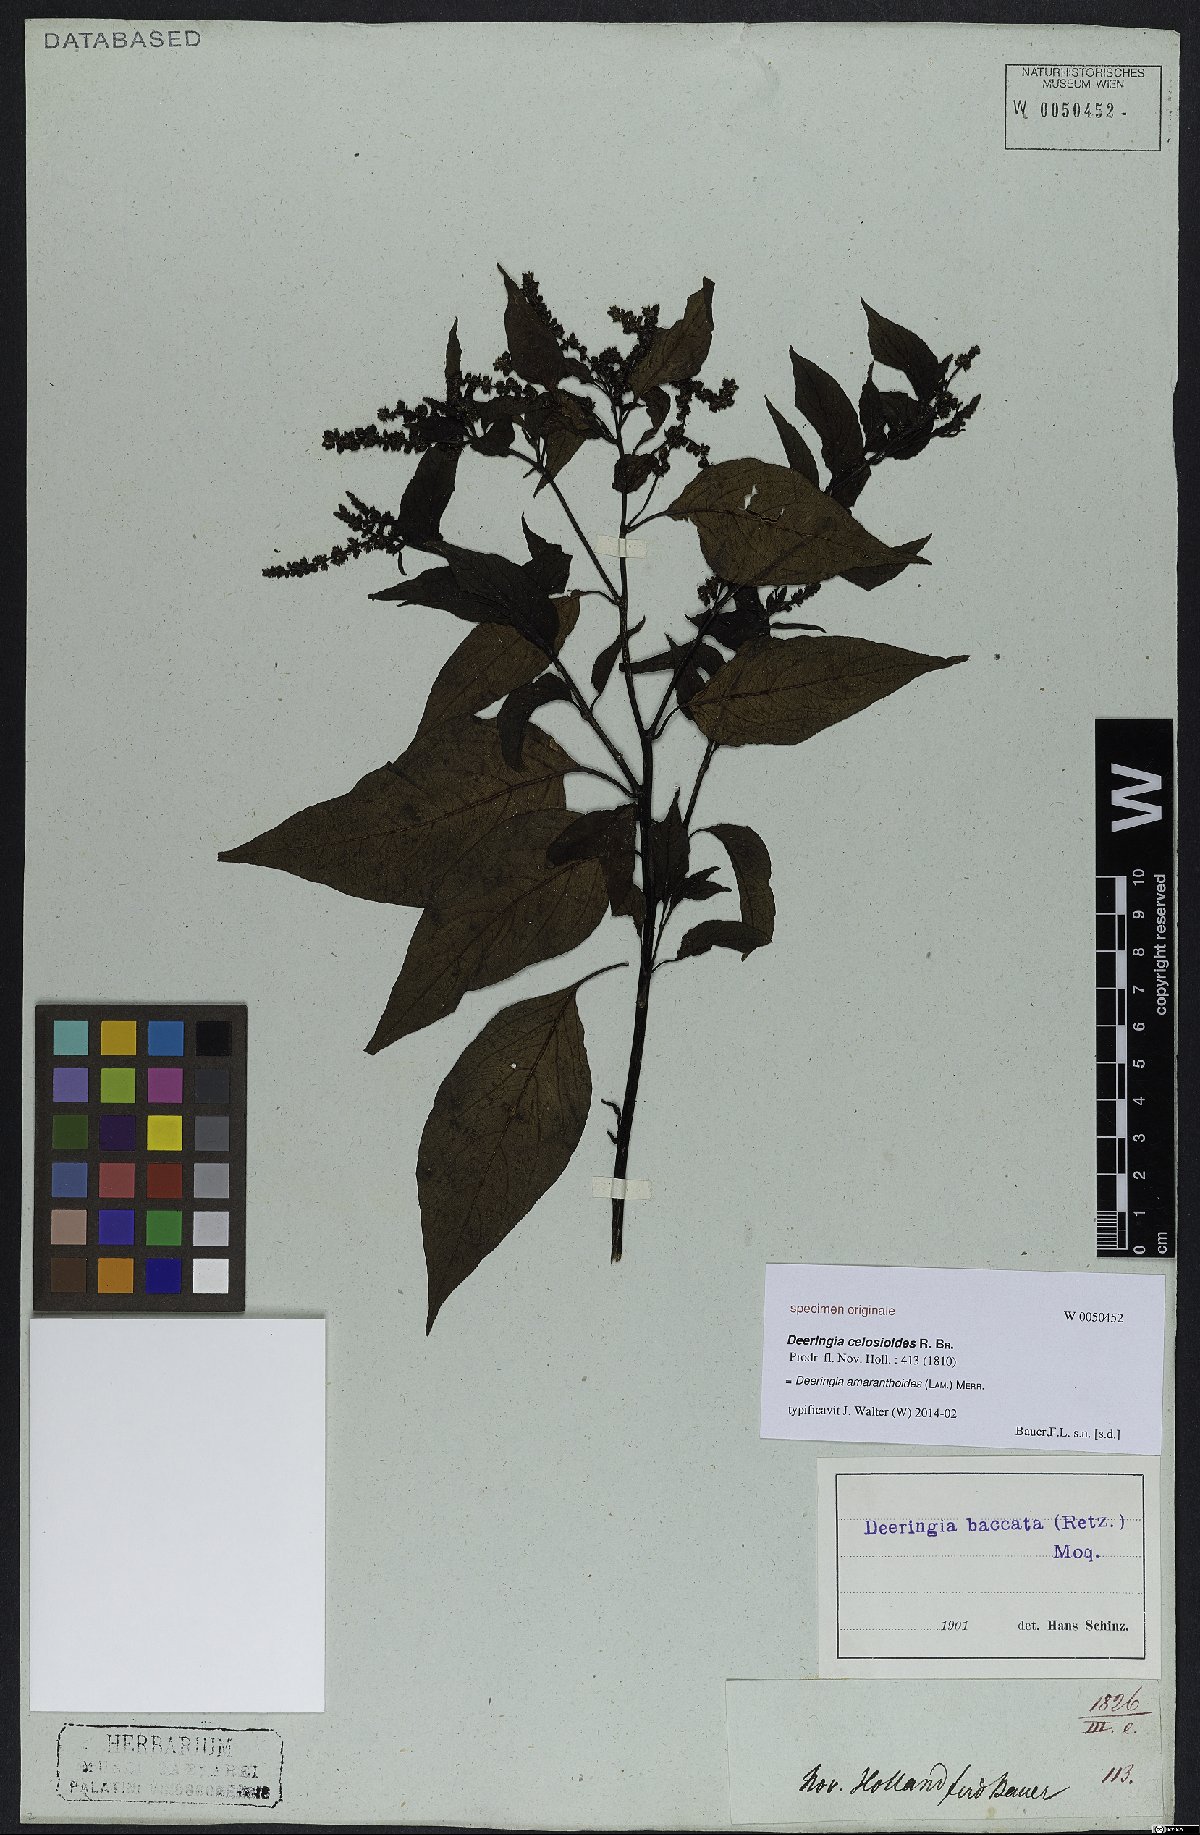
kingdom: Plantae
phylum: Tracheophyta
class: Magnoliopsida
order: Caryophyllales
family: Amaranthaceae
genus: Deeringia
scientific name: Deeringia amaranthoides
